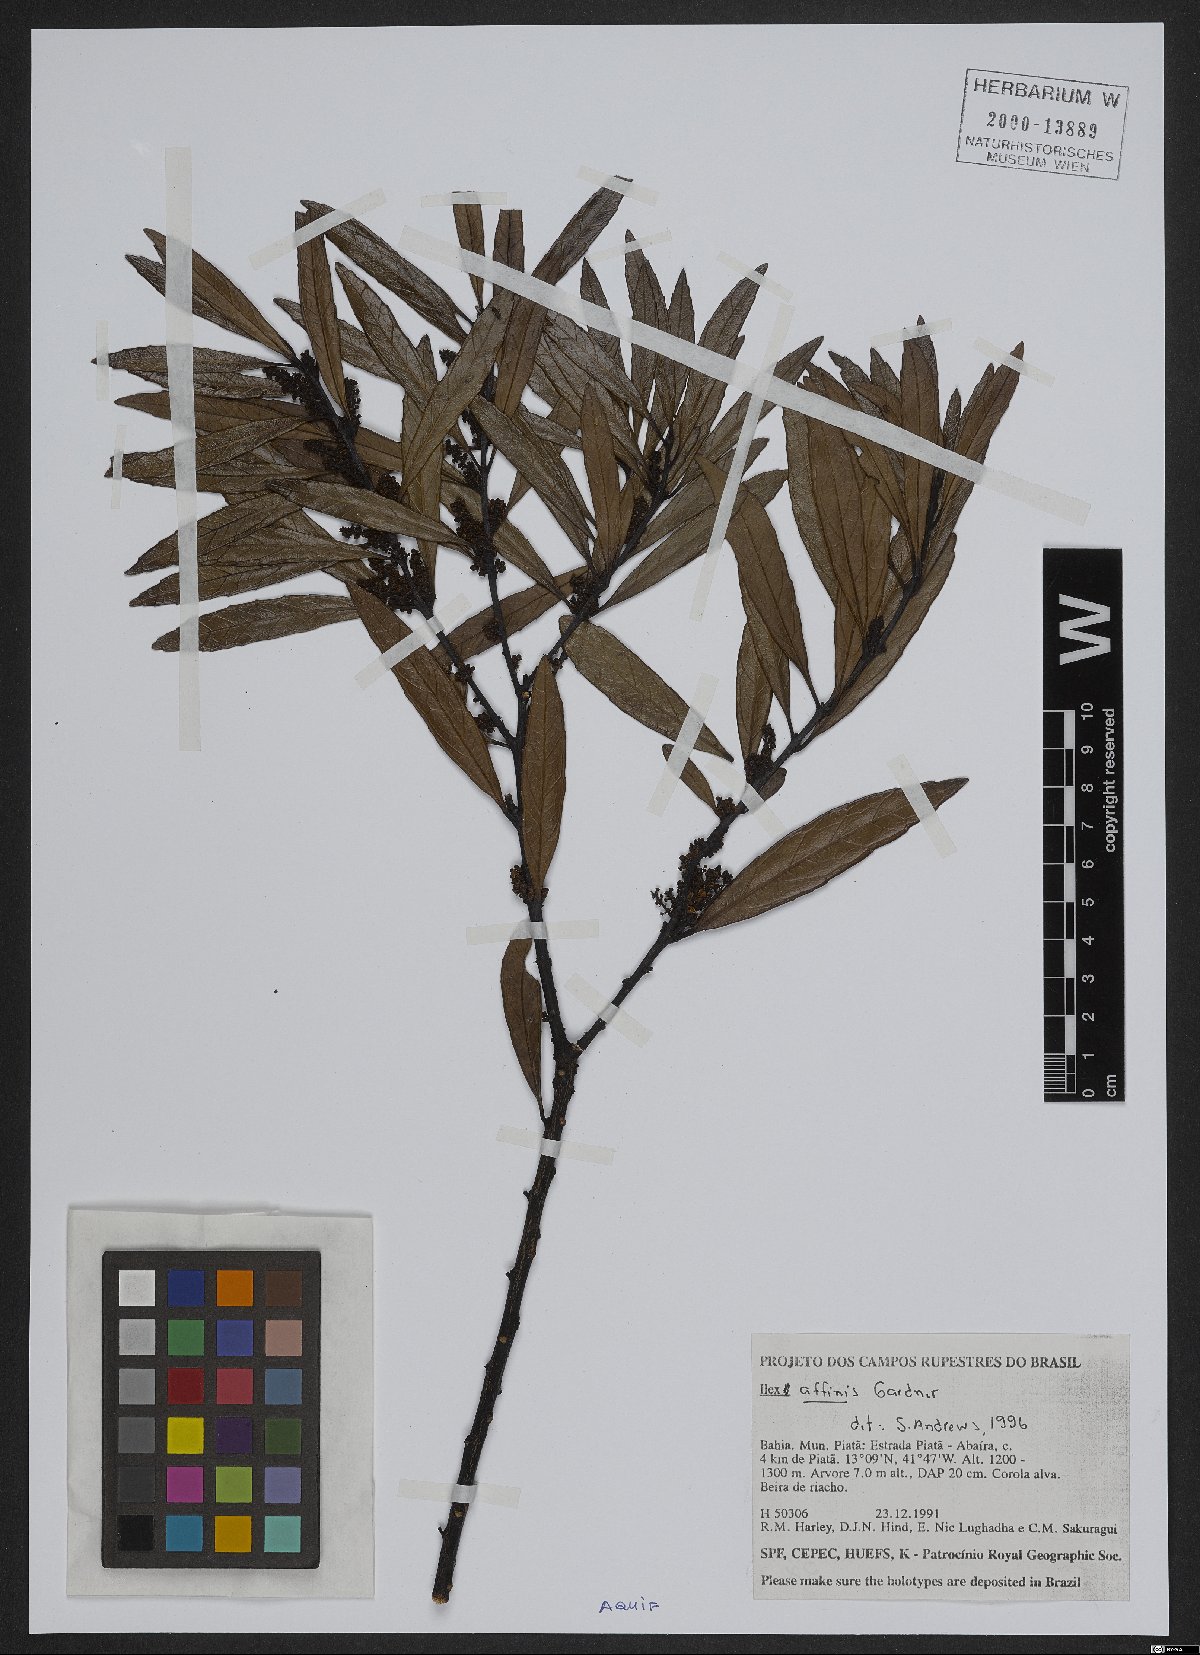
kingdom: Plantae
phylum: Tracheophyta
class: Magnoliopsida
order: Aquifoliales
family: Aquifoliaceae
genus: Ilex
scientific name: Ilex affinis
